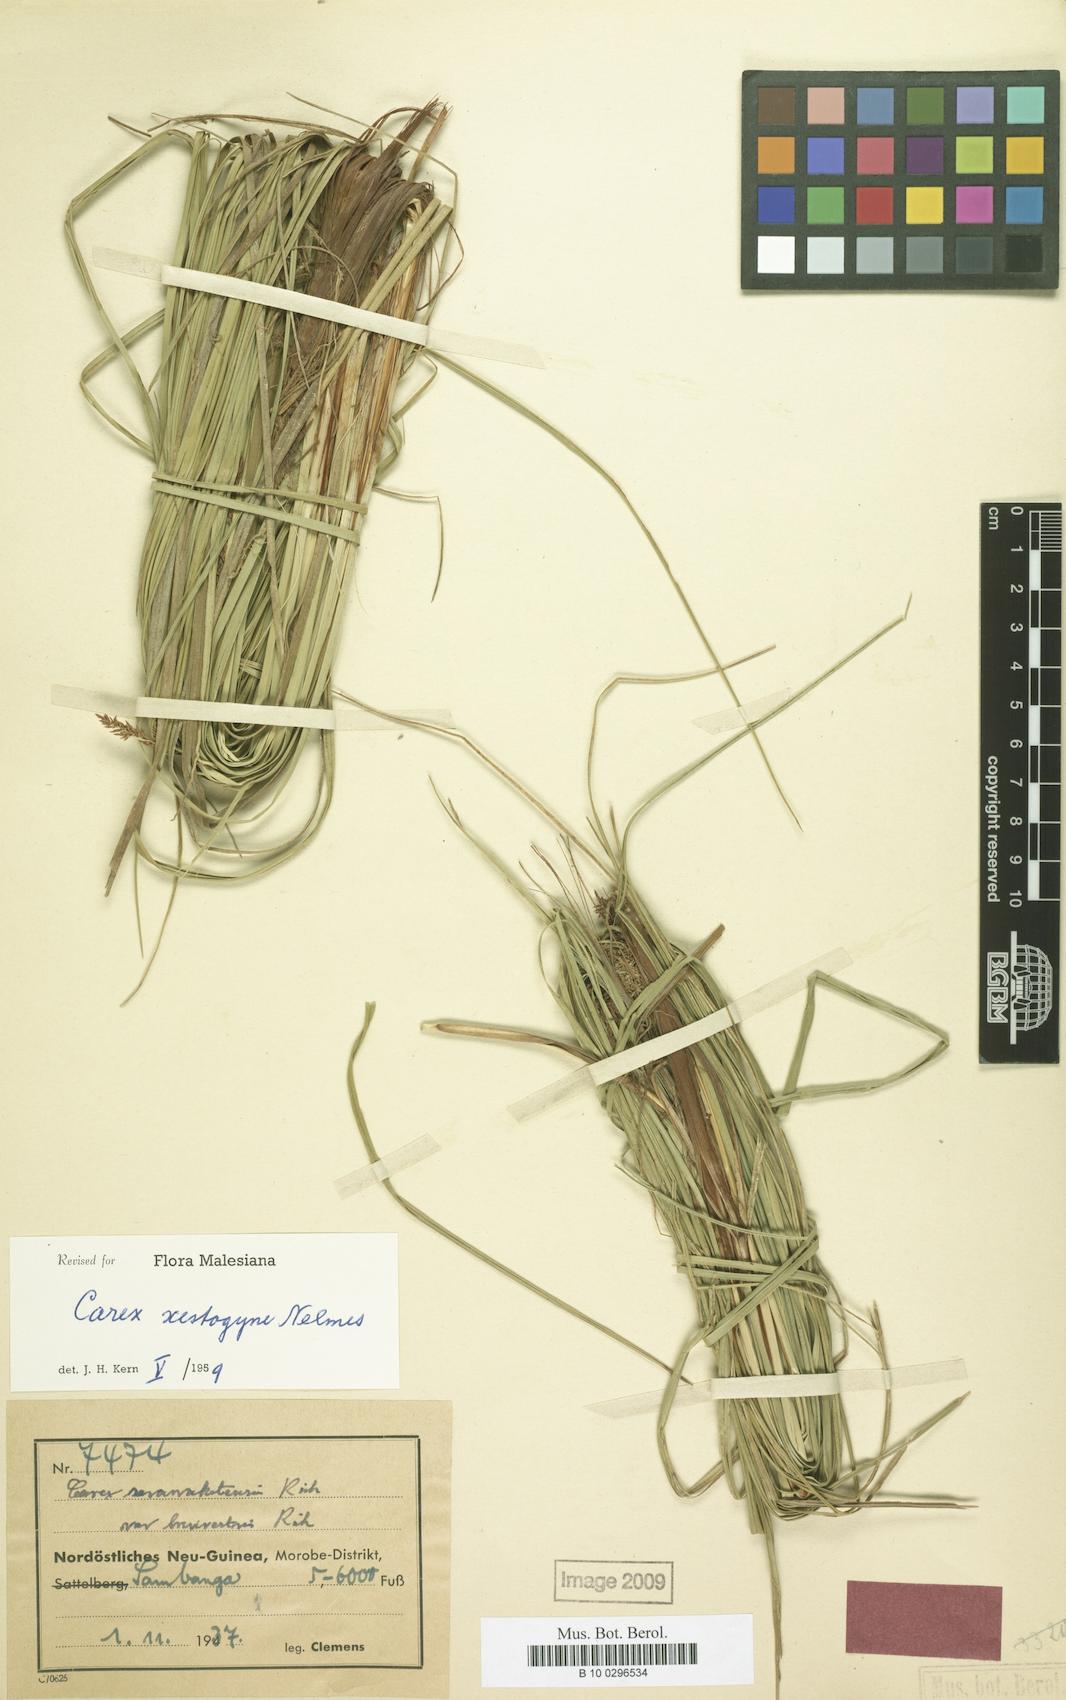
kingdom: Plantae
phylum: Tracheophyta
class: Liliopsida
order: Poales
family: Cyperaceae
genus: Carex
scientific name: Carex rafflesiana
